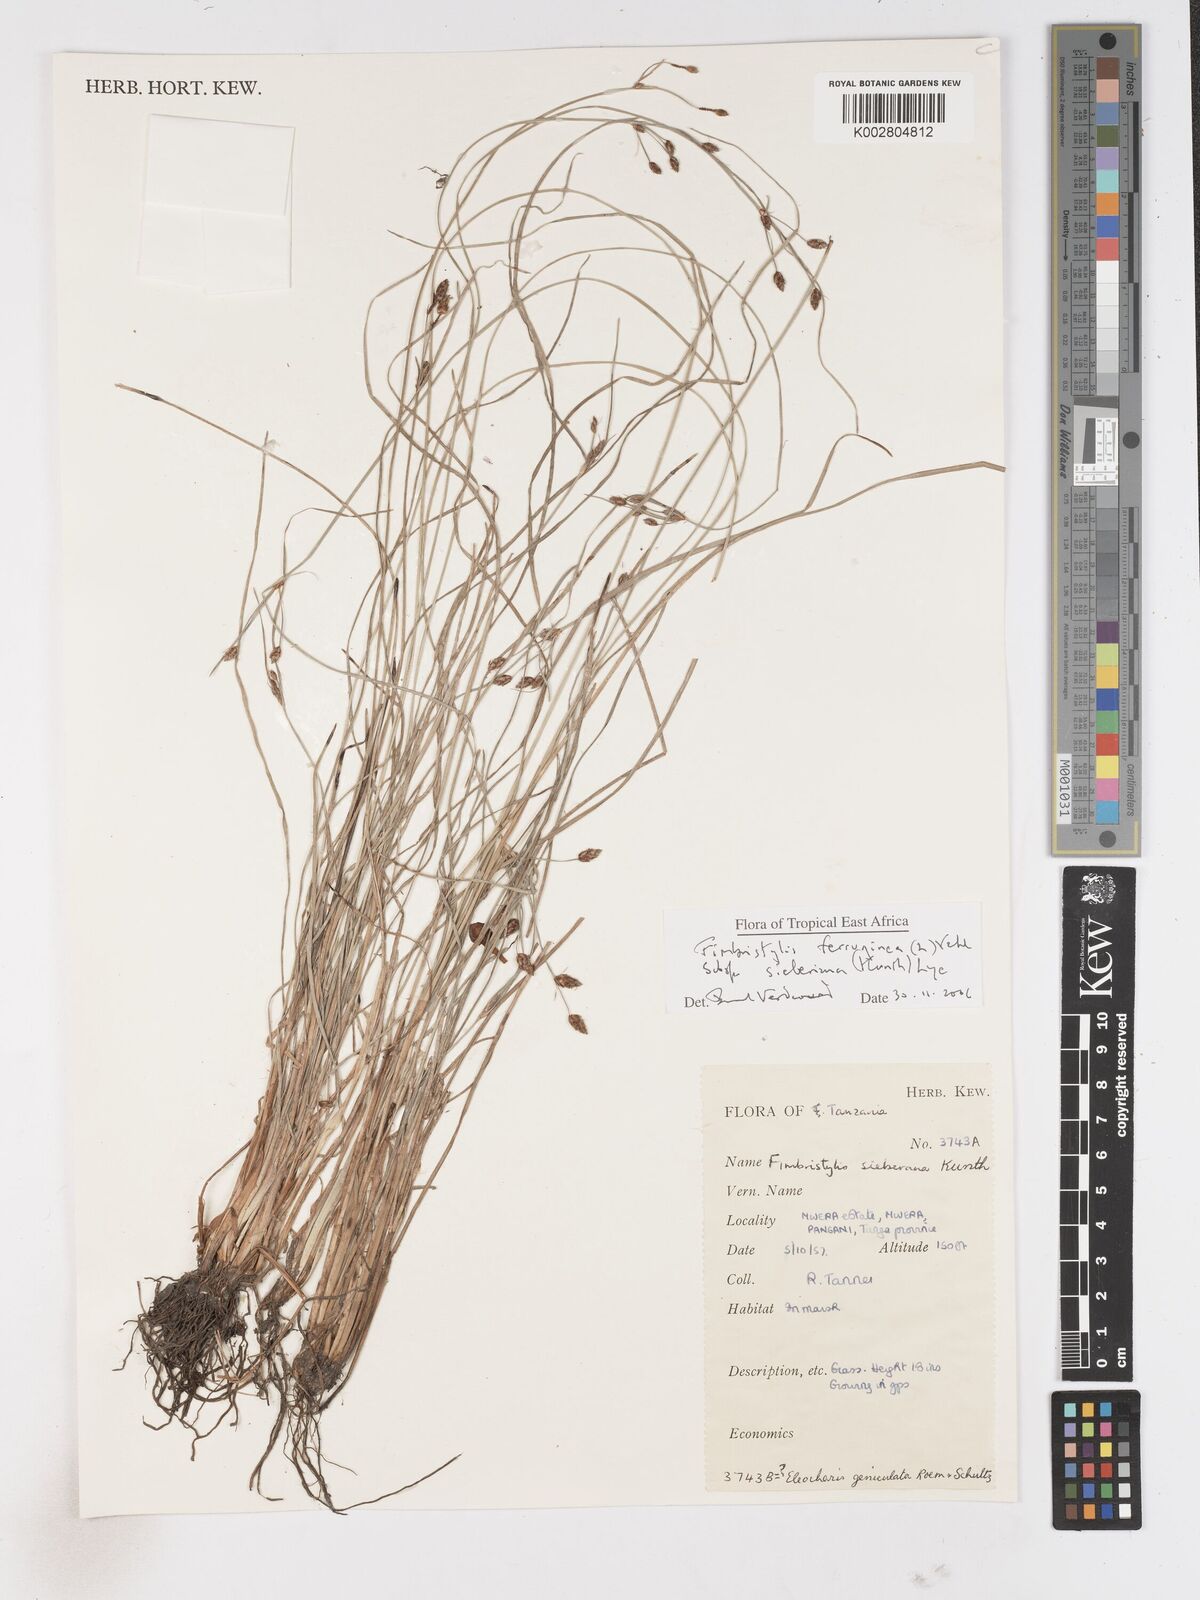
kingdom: Plantae
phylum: Tracheophyta
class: Liliopsida
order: Poales
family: Cyperaceae
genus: Fimbristylis
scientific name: Fimbristylis ferruginea
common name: West indian fimbry
